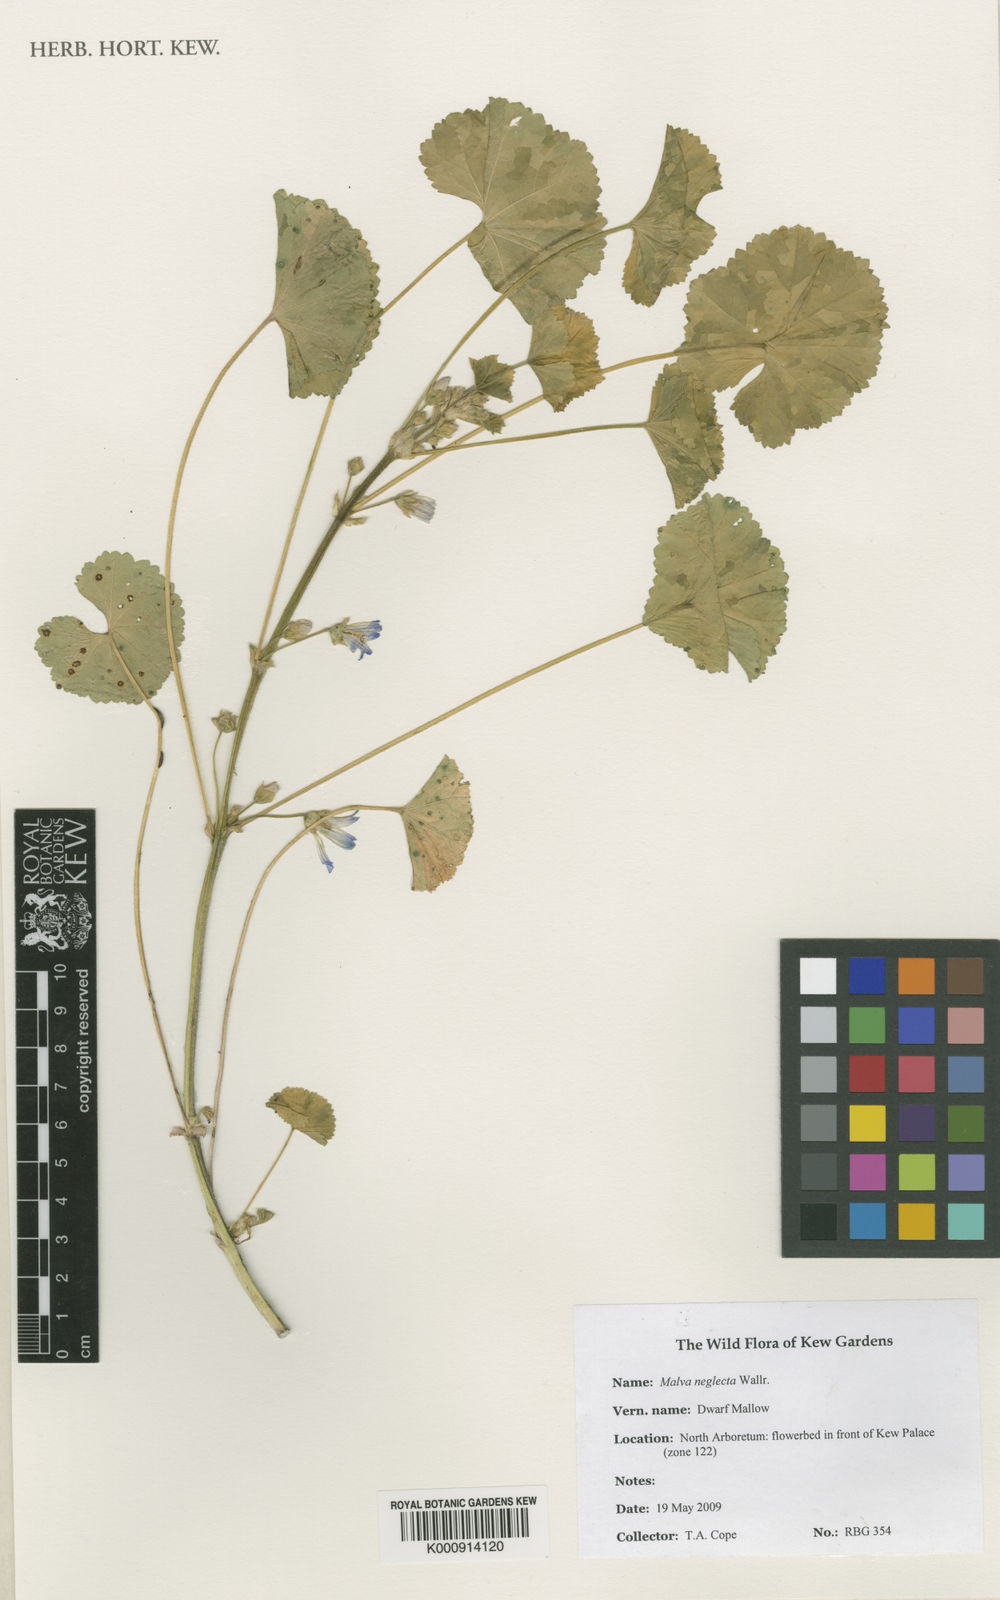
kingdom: Plantae
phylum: Tracheophyta
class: Magnoliopsida
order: Malvales
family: Malvaceae
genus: Malva
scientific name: Malva neglecta
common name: Common mallow
